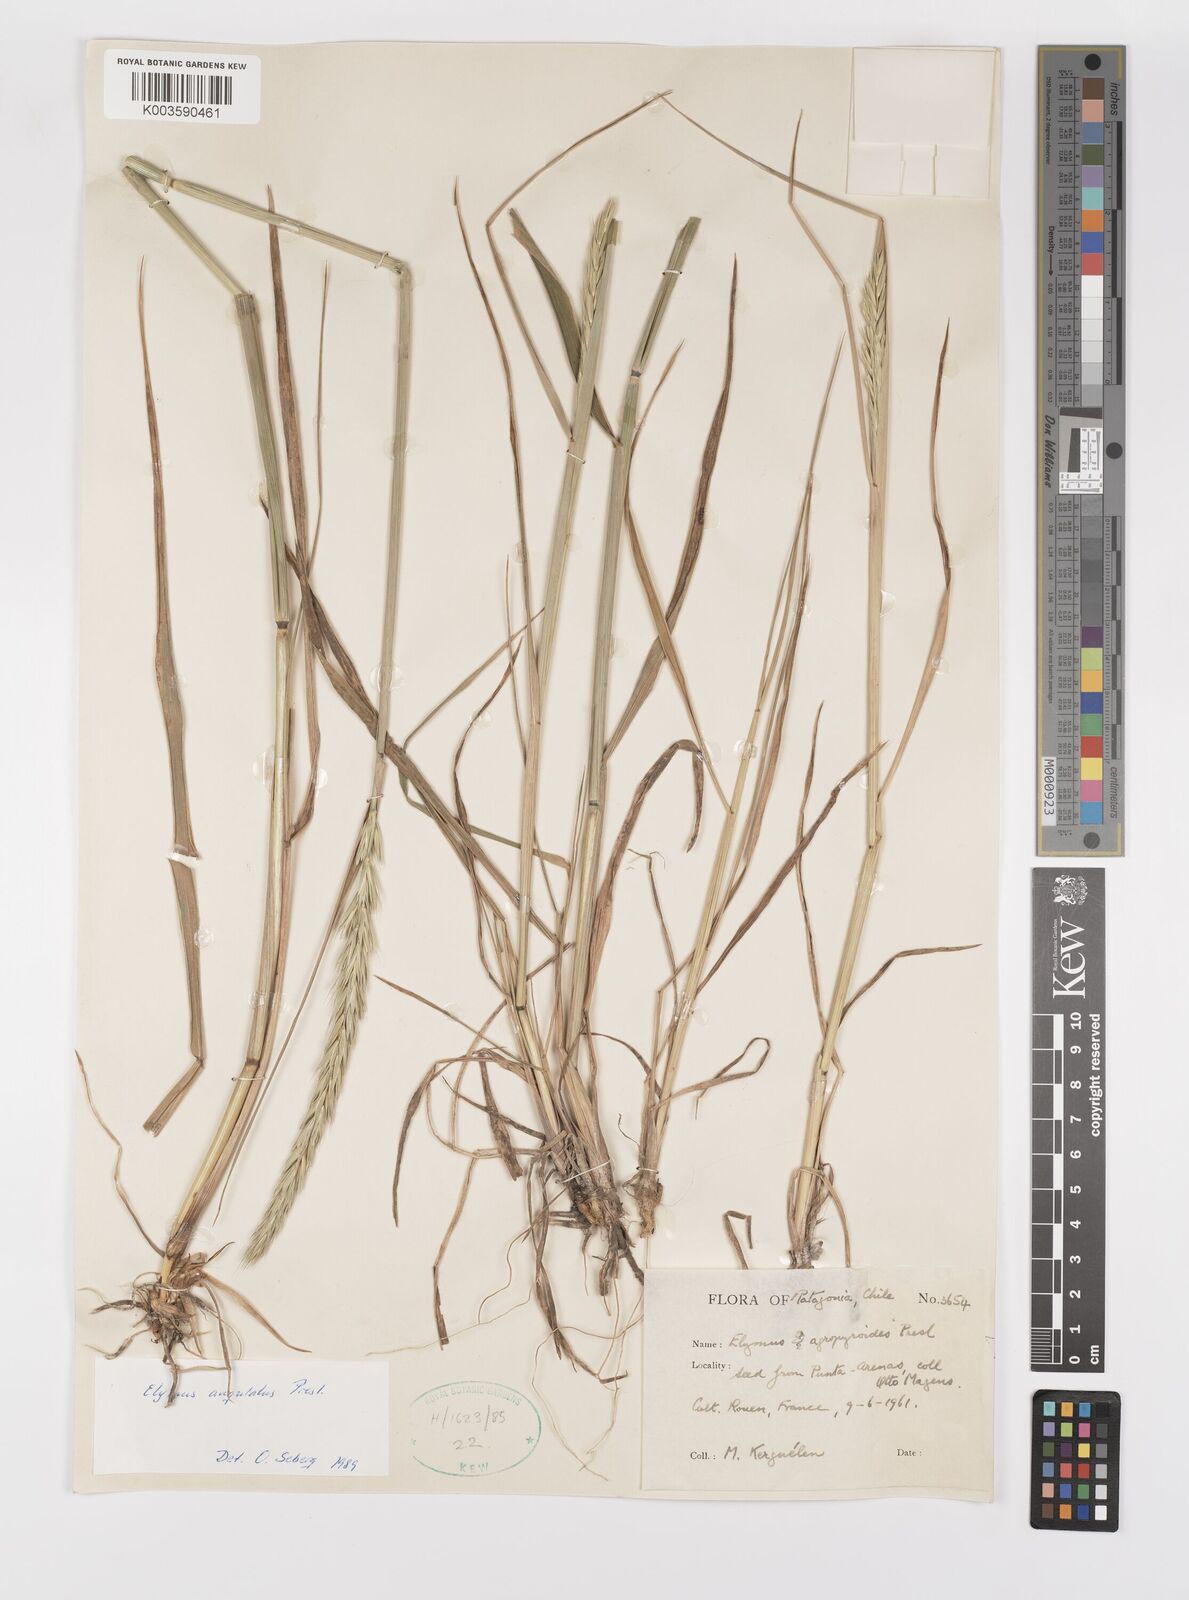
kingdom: Plantae
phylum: Tracheophyta
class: Liliopsida
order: Poales
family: Poaceae
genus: Elymus
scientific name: Elymus angulatus
